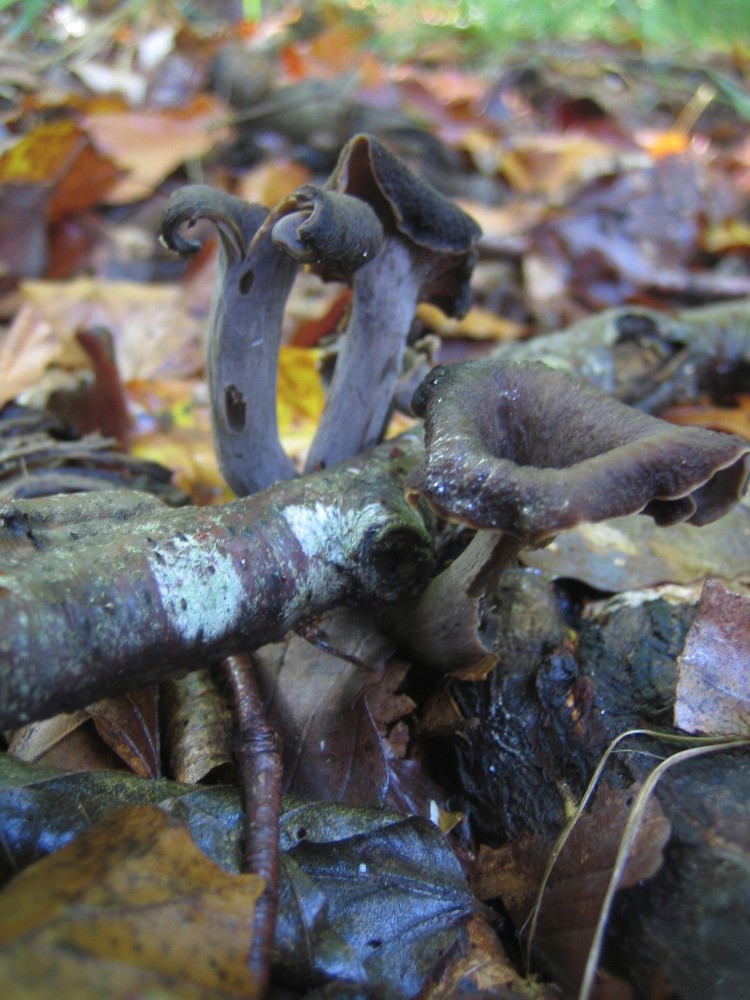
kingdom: Fungi
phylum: Basidiomycota
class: Agaricomycetes
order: Cantharellales
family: Hydnaceae
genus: Craterellus
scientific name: Craterellus cornucopioides
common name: trompetsvamp
